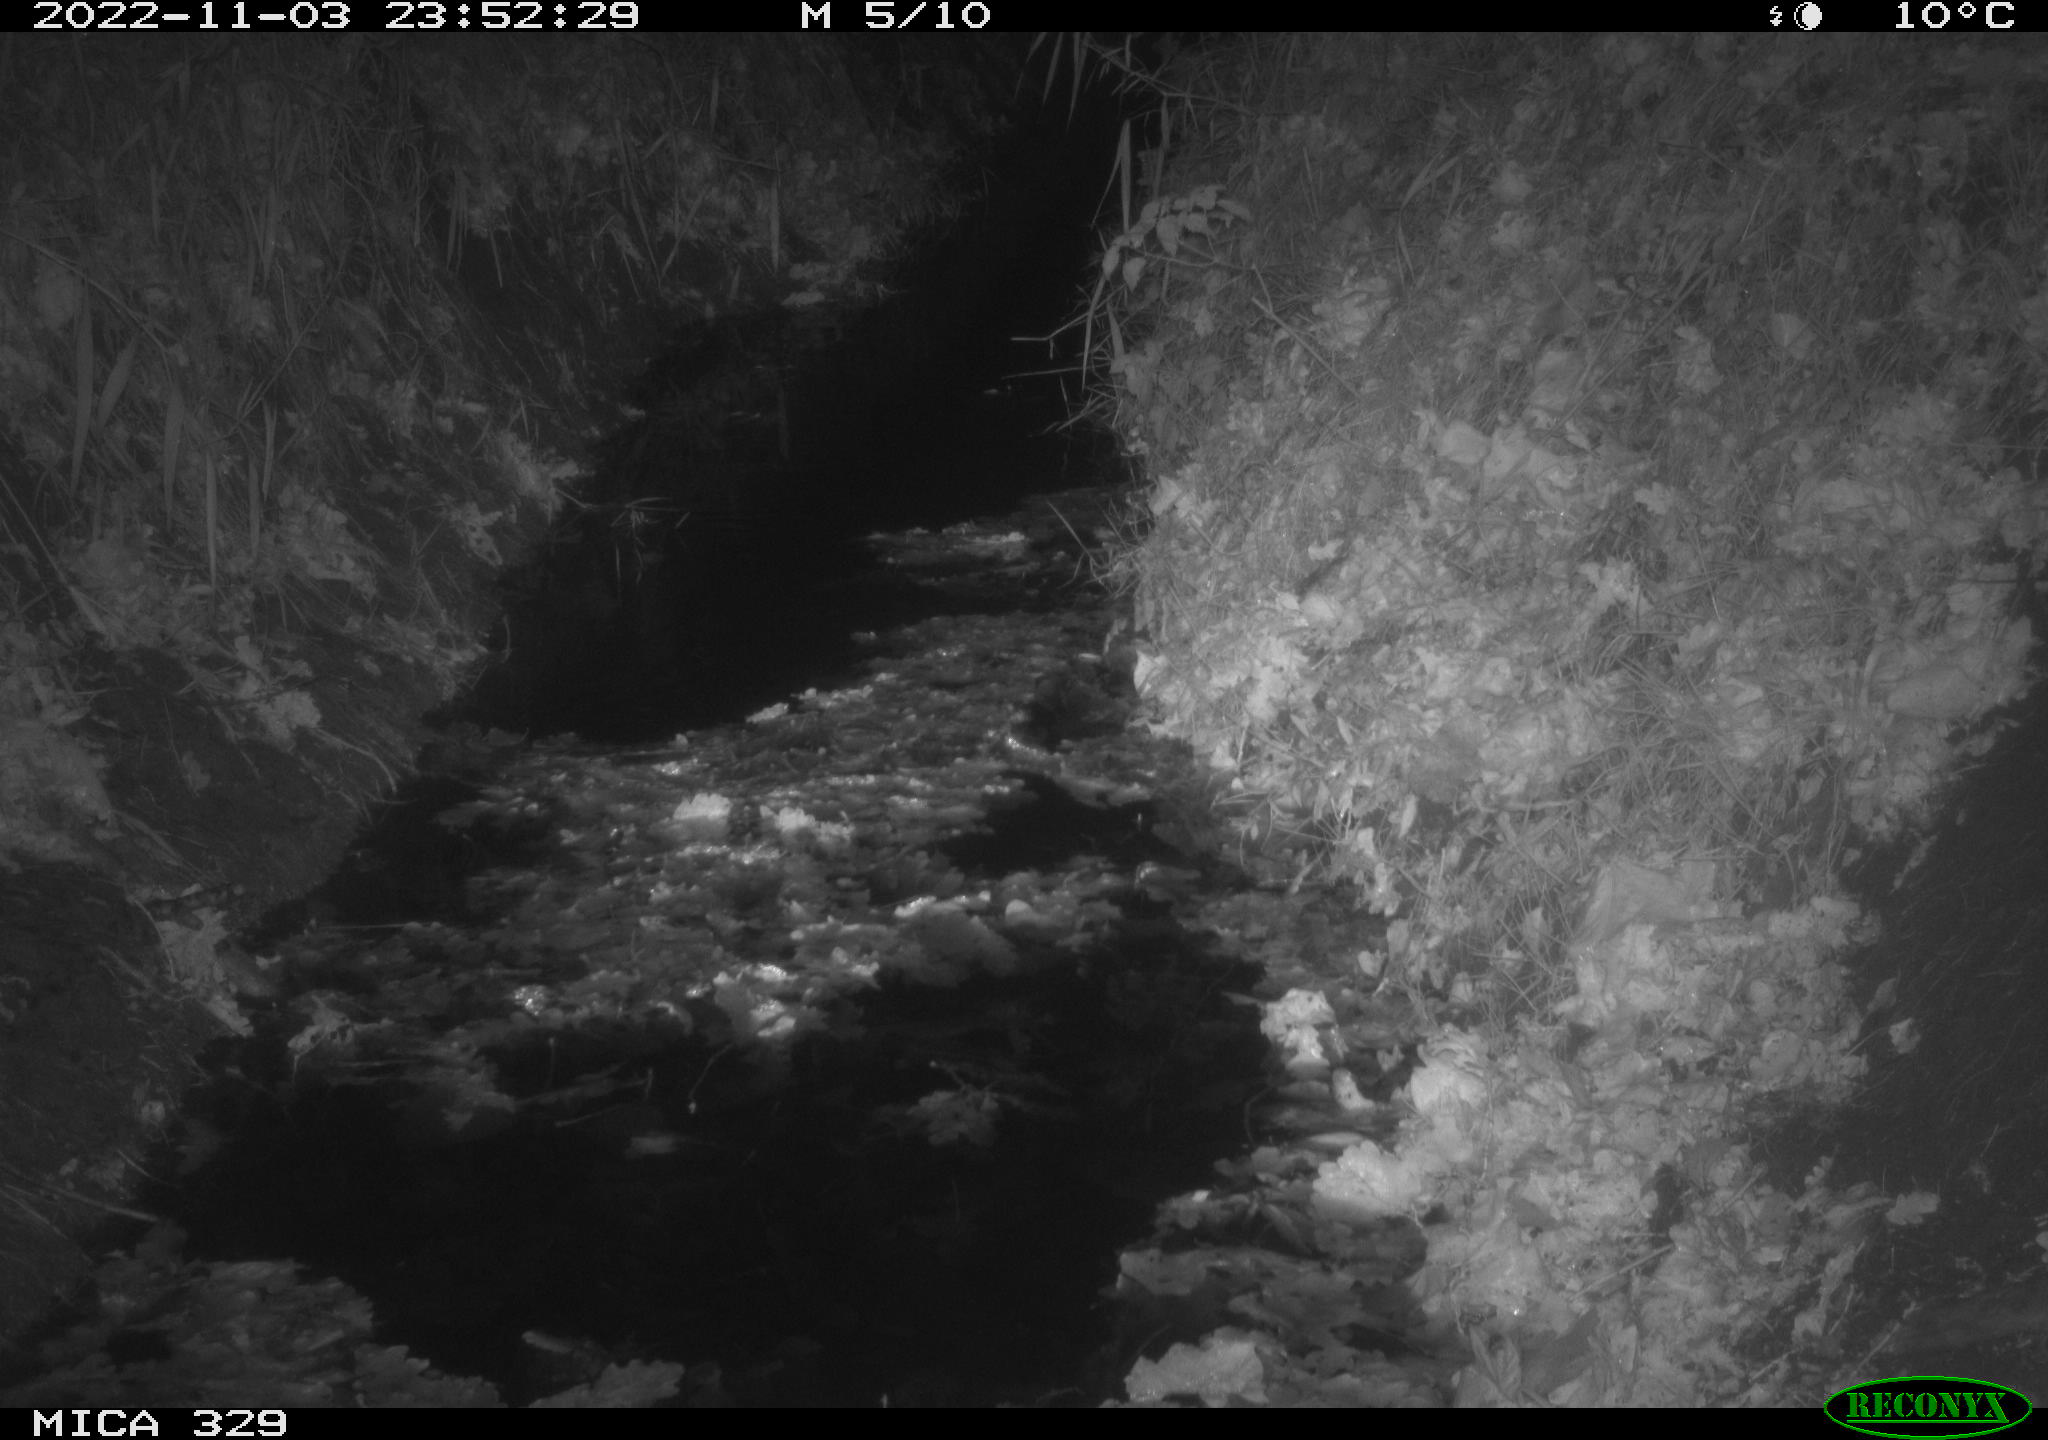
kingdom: Animalia
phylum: Chordata
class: Mammalia
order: Rodentia
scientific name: Rodentia
